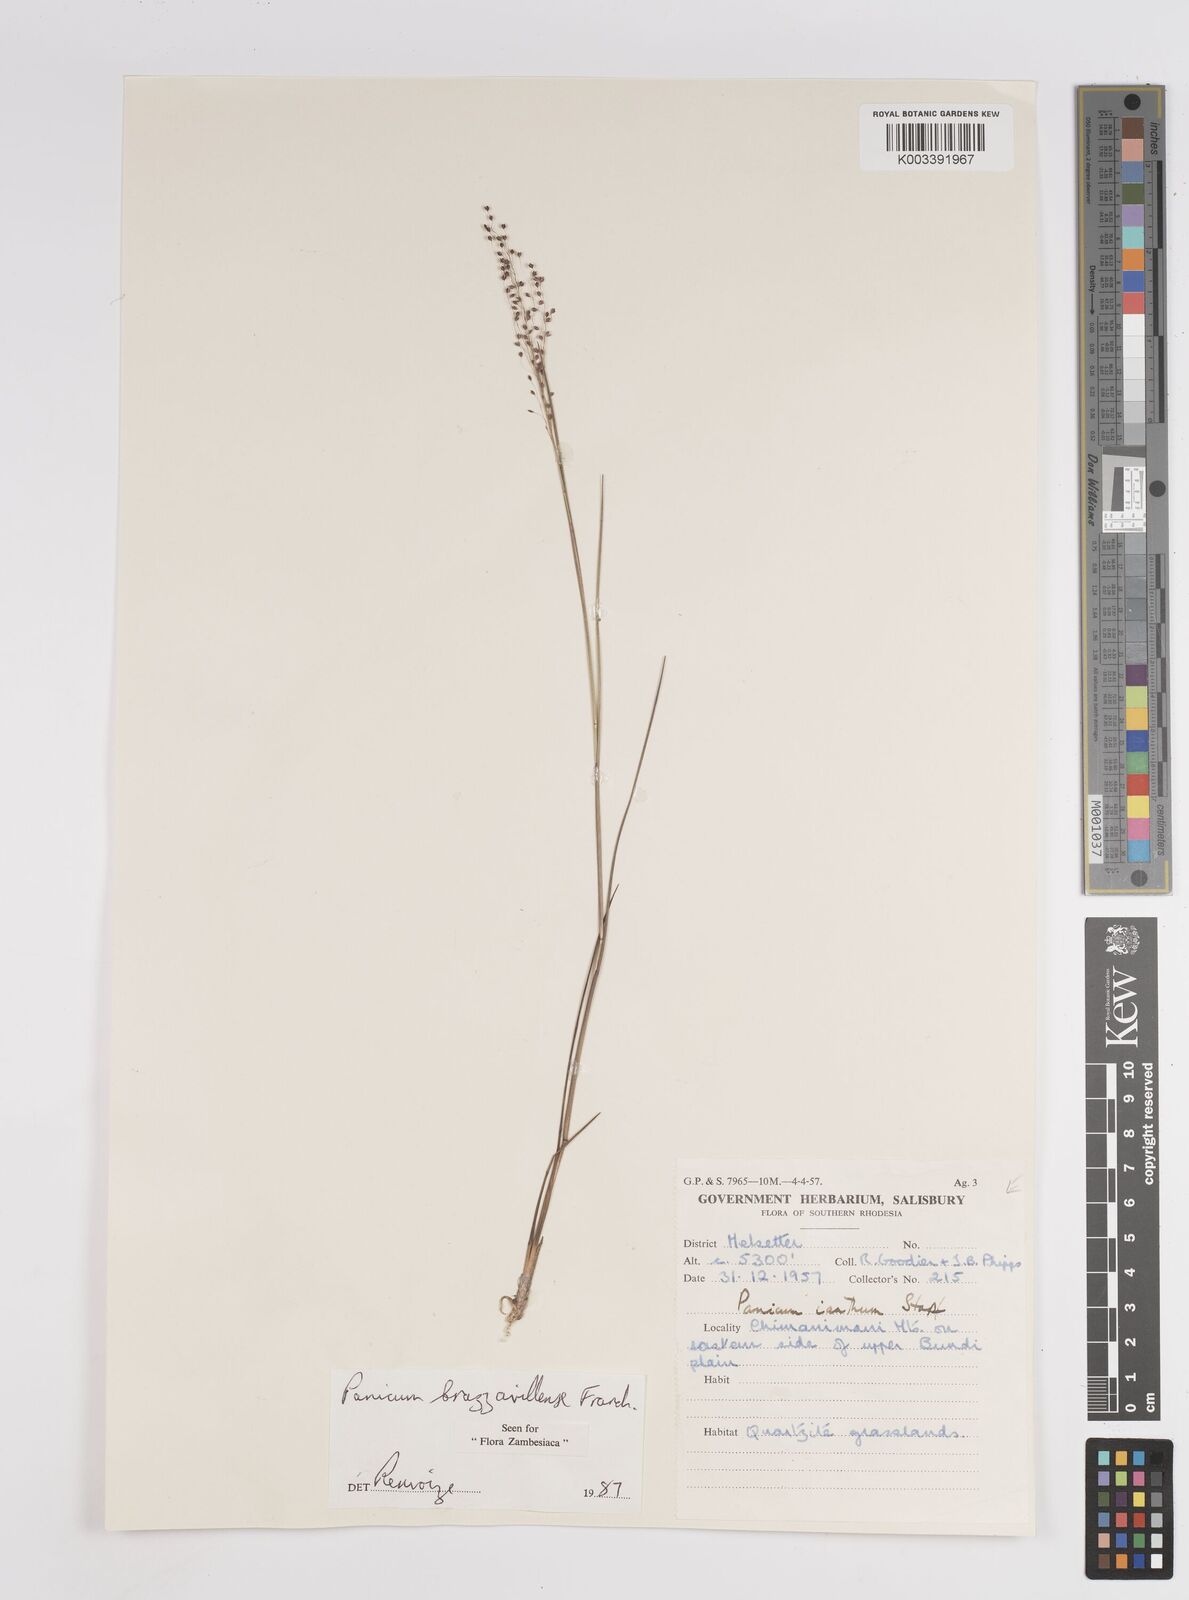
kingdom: Plantae
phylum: Tracheophyta
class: Liliopsida
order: Poales
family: Poaceae
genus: Trichanthecium
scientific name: Trichanthecium brazzavillense
